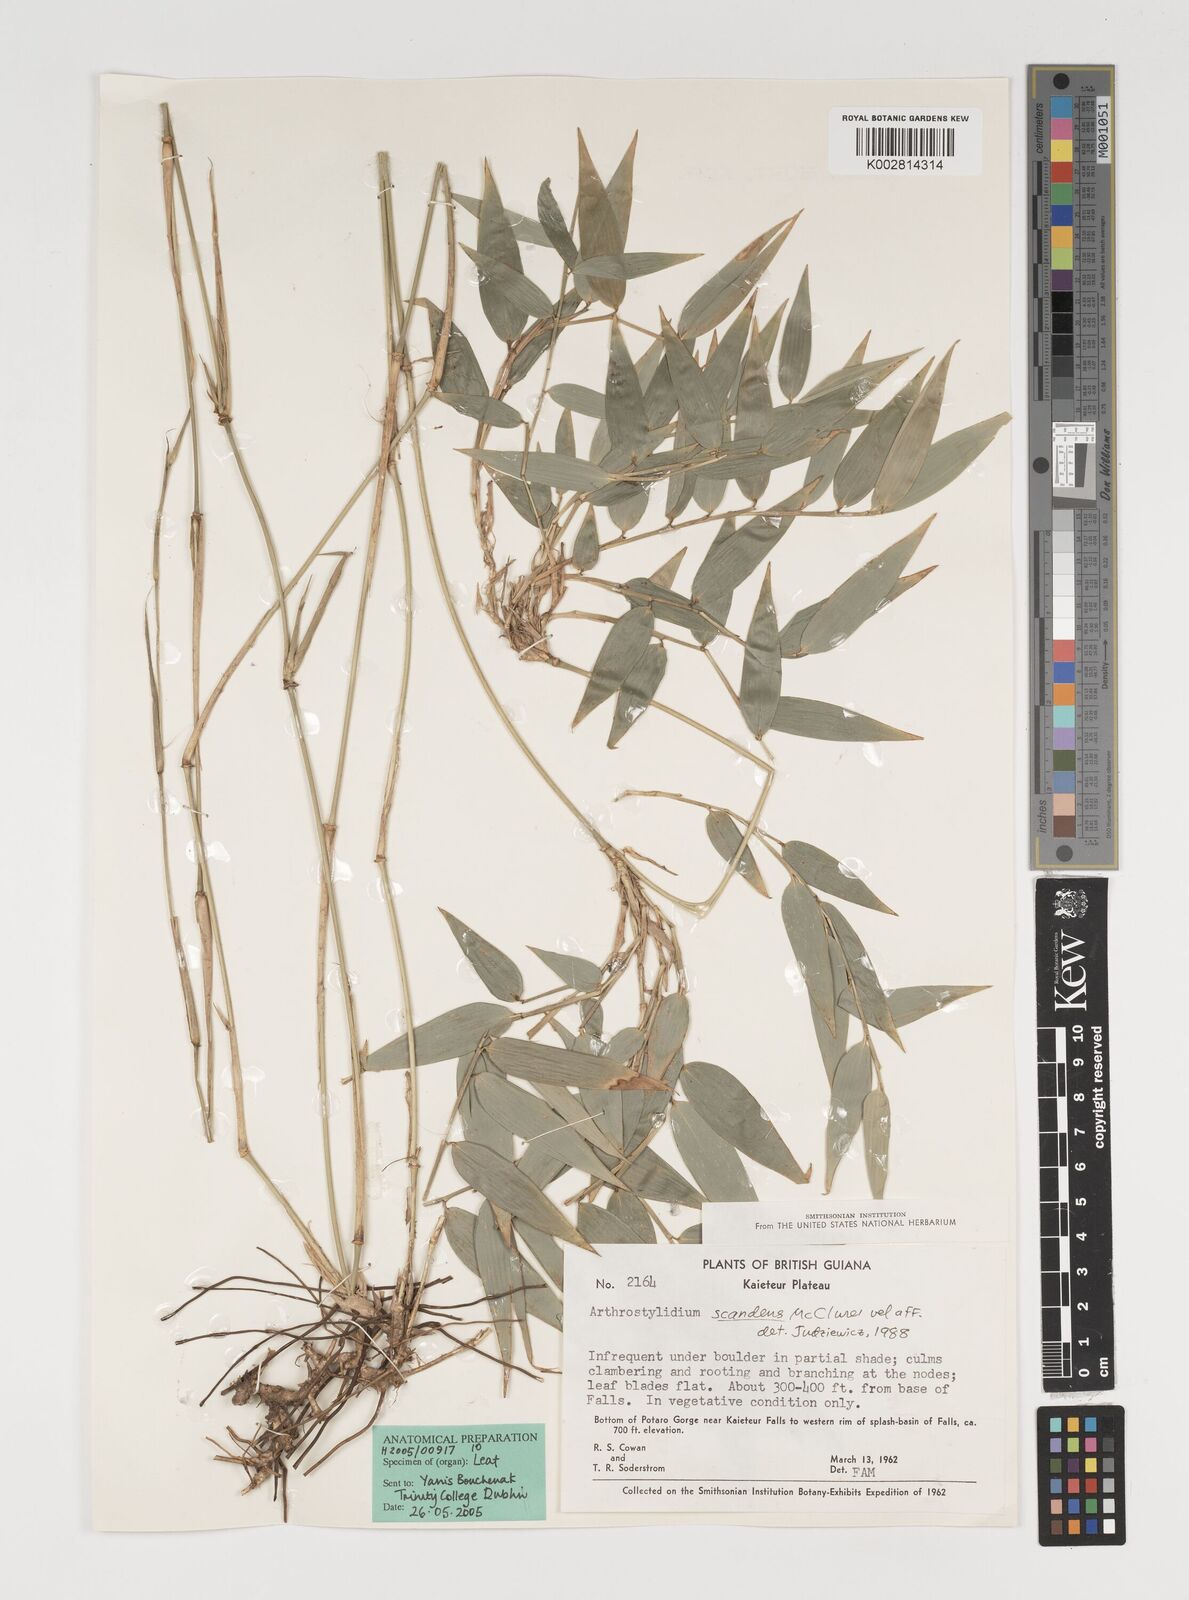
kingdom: Plantae
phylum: Tracheophyta
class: Liliopsida
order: Poales
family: Poaceae
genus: Arthrostylidium
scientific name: Arthrostylidium scandens
